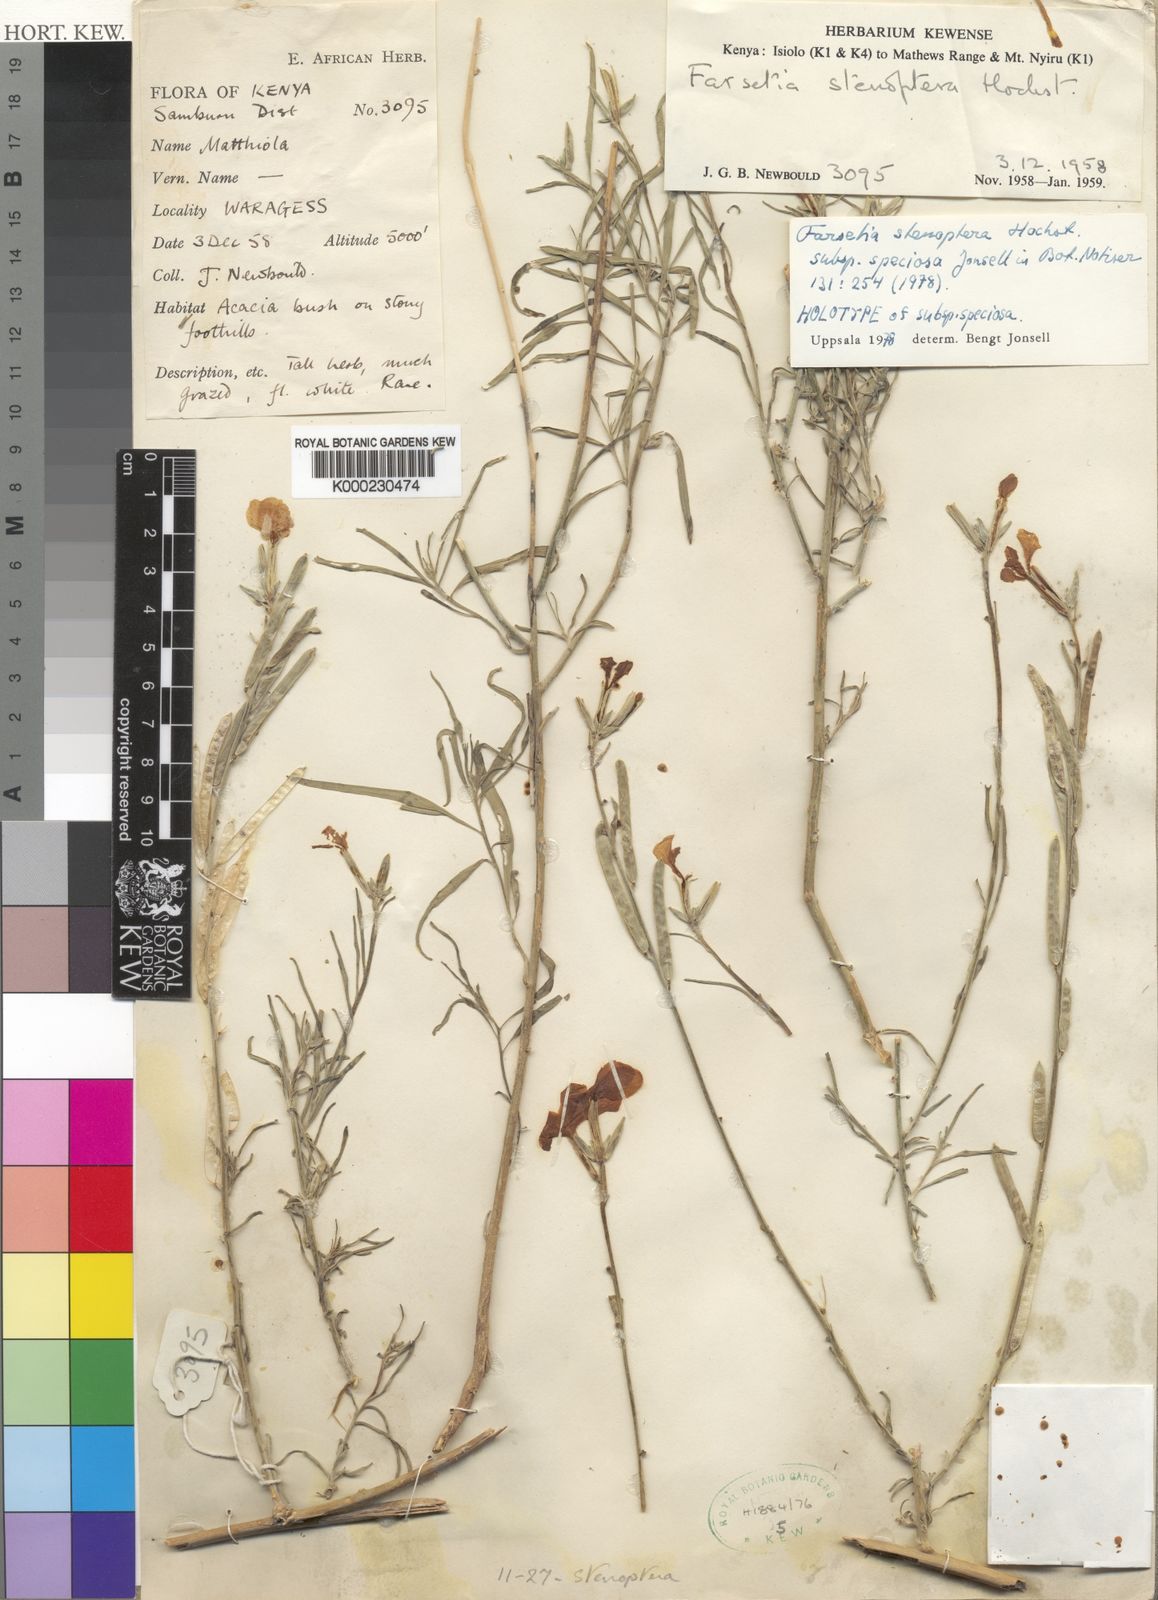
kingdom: Plantae
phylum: Tracheophyta
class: Magnoliopsida
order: Brassicales
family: Brassicaceae
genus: Farsetia
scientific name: Farsetia stenoptera
